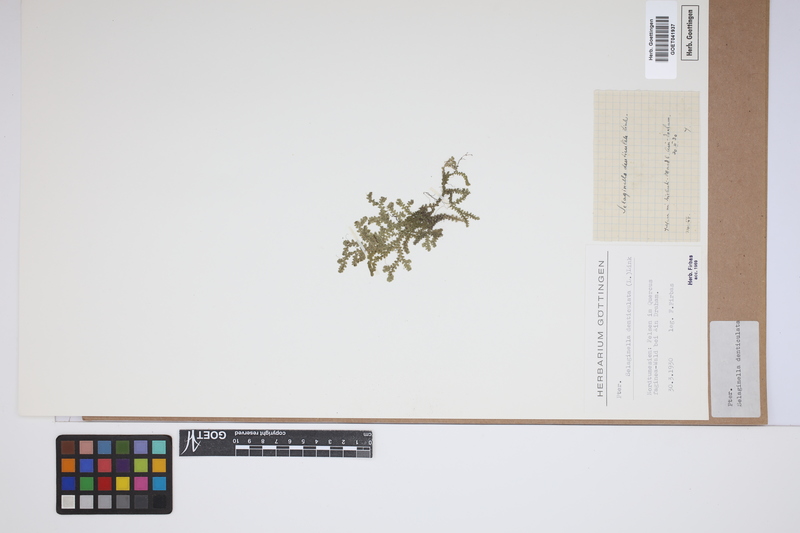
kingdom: Plantae
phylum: Tracheophyta
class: Lycopodiopsida
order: Selaginellales
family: Selaginellaceae
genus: Selaginella
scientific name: Selaginella denticulata
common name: Toothed-leaved clubmoss
